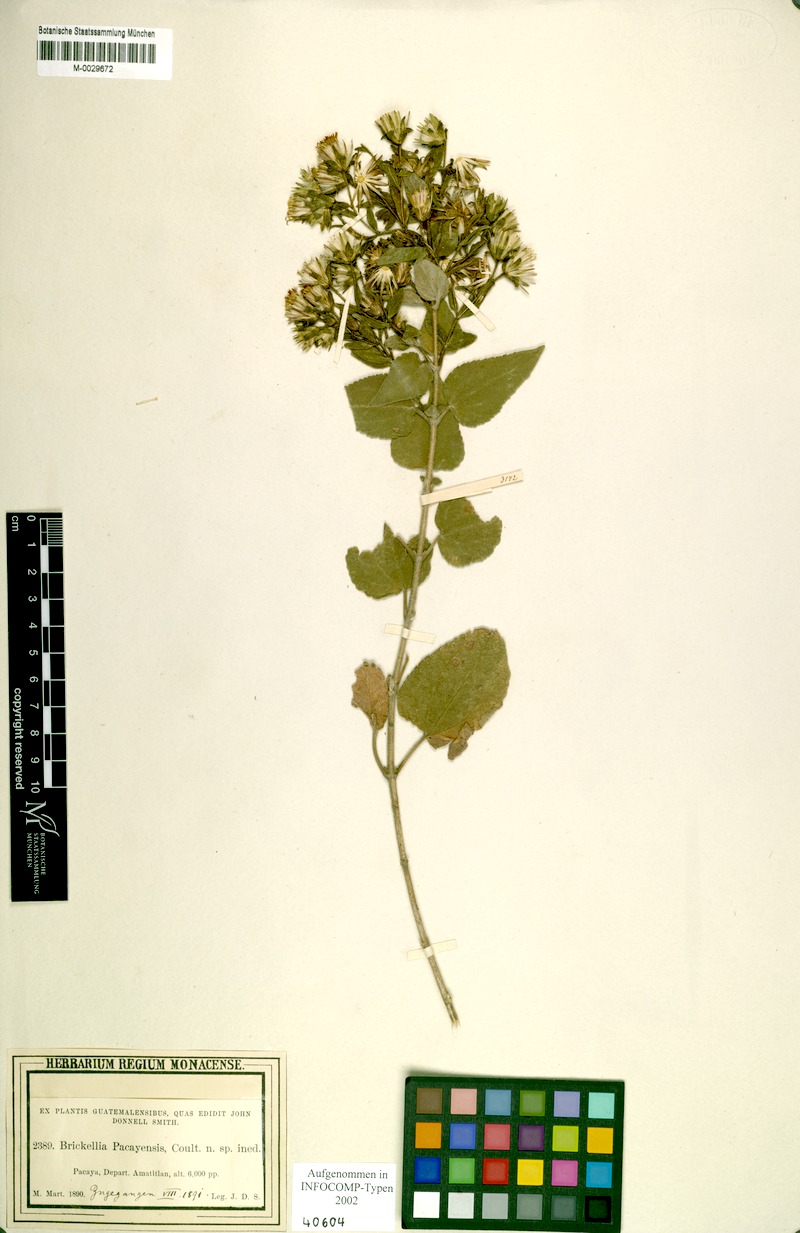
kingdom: Plantae
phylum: Tracheophyta
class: Magnoliopsida
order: Asterales
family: Asteraceae
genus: Brickellia
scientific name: Brickellia glandulosa
